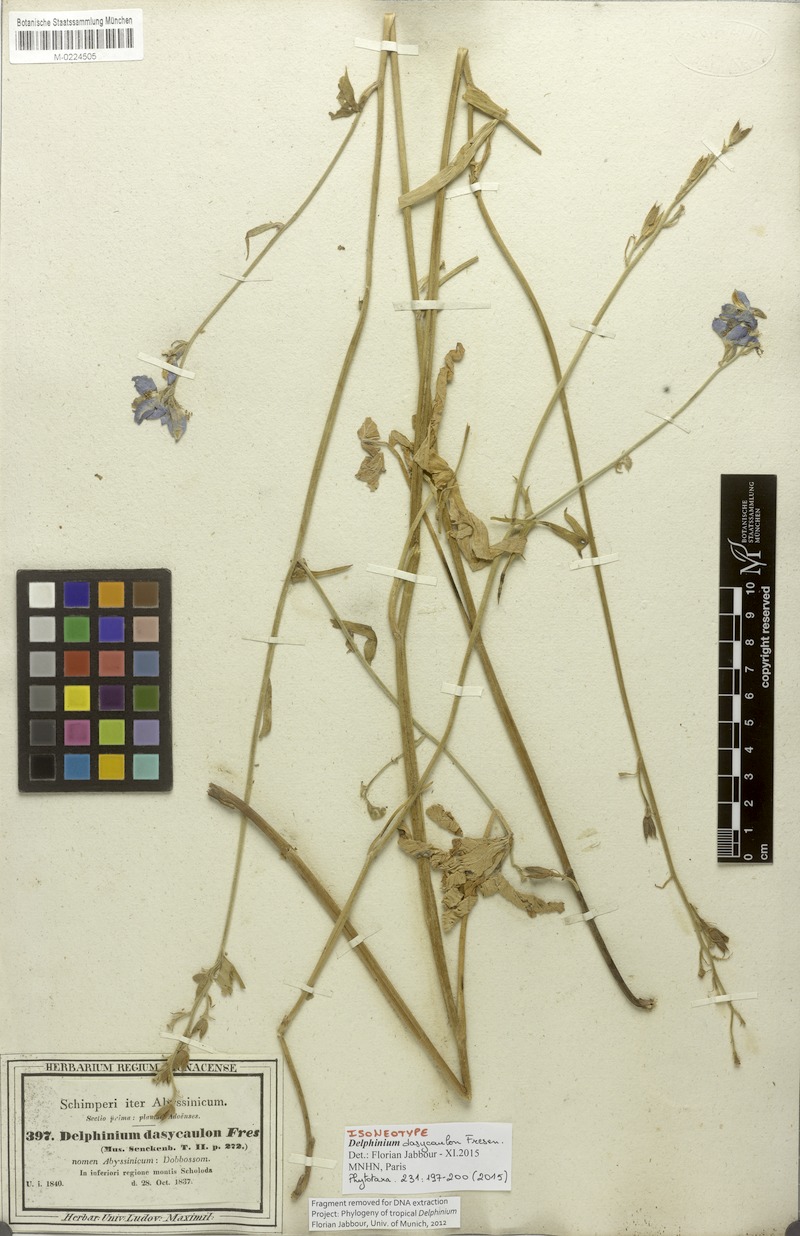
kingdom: Plantae
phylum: Tracheophyta
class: Magnoliopsida
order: Ranunculales
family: Ranunculaceae
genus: Delphinium
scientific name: Delphinium dasycaulon
